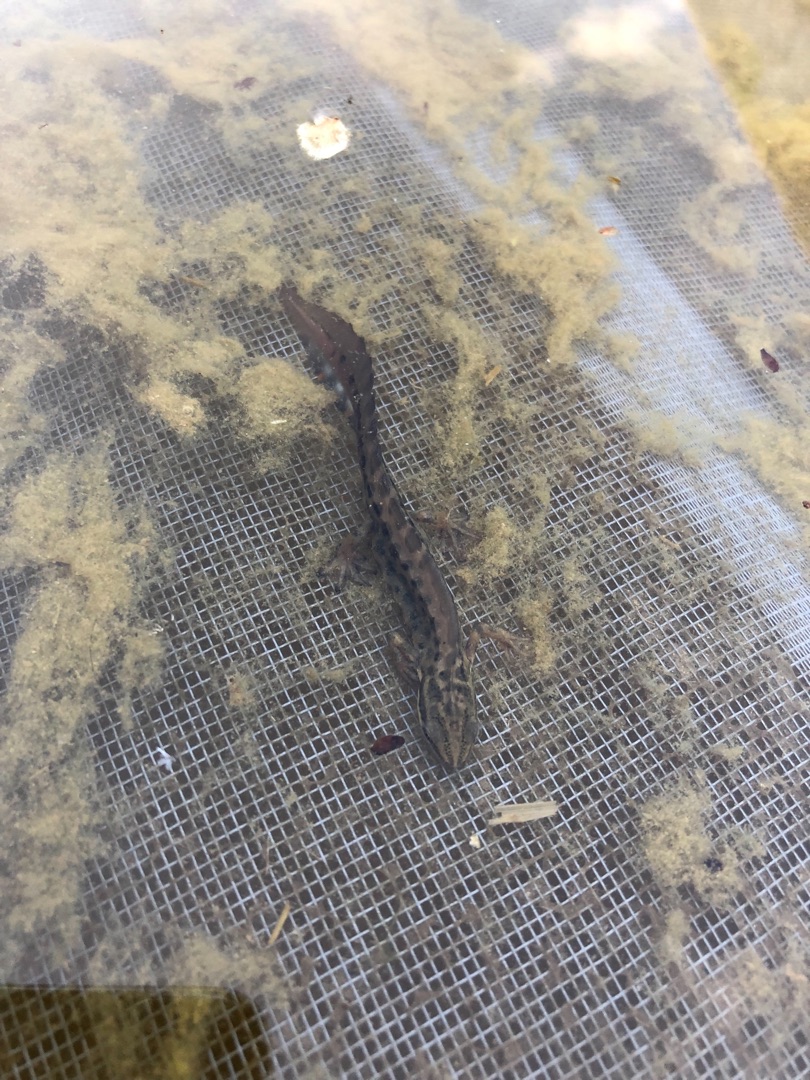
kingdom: Animalia
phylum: Chordata
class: Amphibia
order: Caudata
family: Salamandridae
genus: Lissotriton
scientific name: Lissotriton vulgaris
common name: Lille vandsalamander
